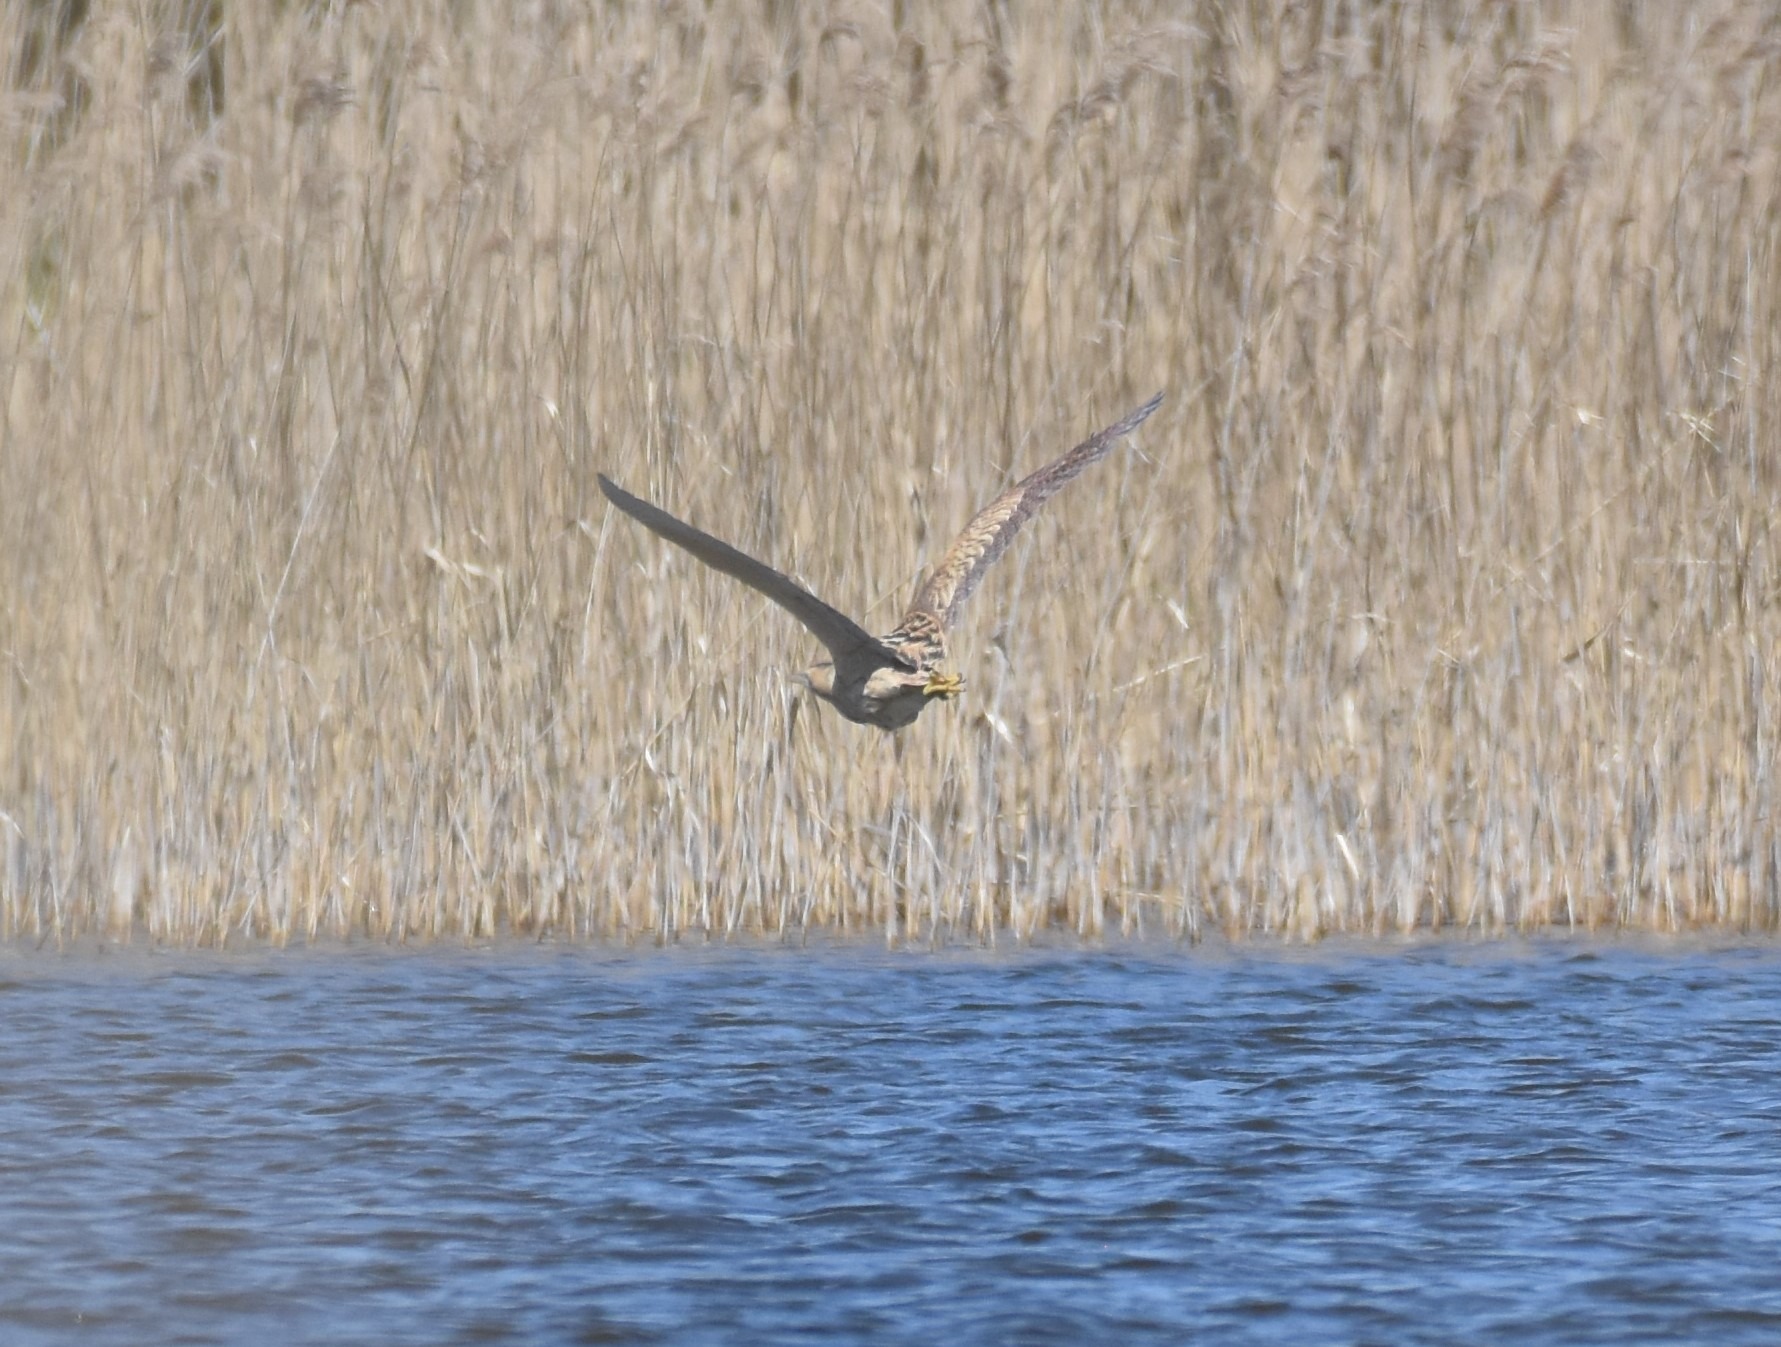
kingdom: Animalia
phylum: Chordata
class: Aves
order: Pelecaniformes
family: Ardeidae
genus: Botaurus
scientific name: Botaurus stellaris
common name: Rørdrum
